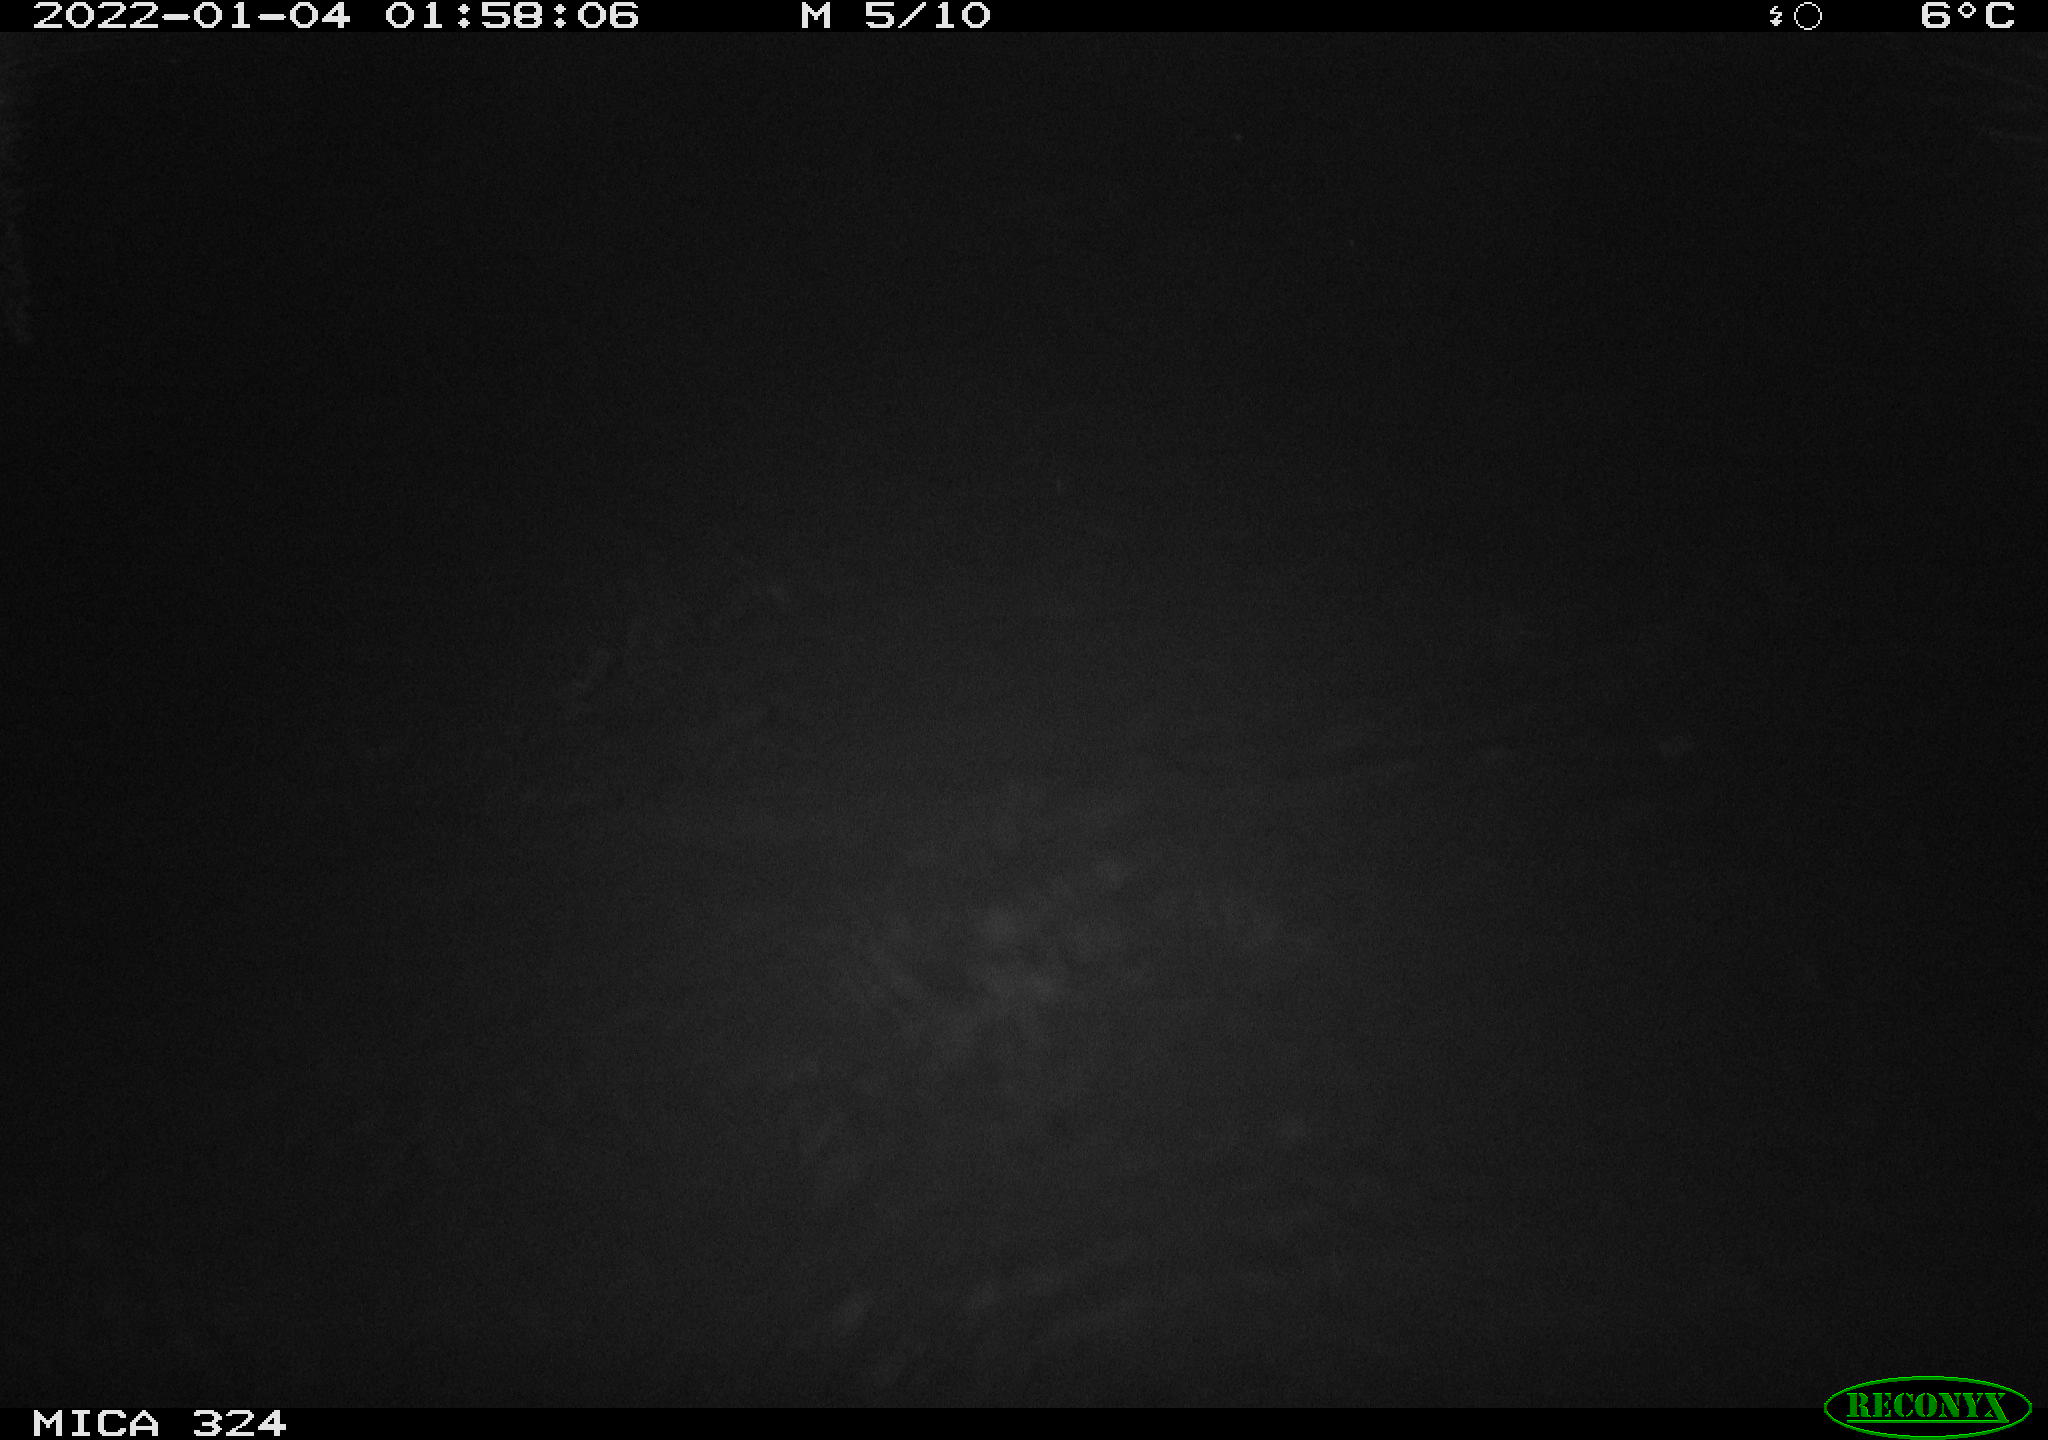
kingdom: Animalia
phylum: Chordata
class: Mammalia
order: Rodentia
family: Cricetidae
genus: Ondatra
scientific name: Ondatra zibethicus
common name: Muskrat
